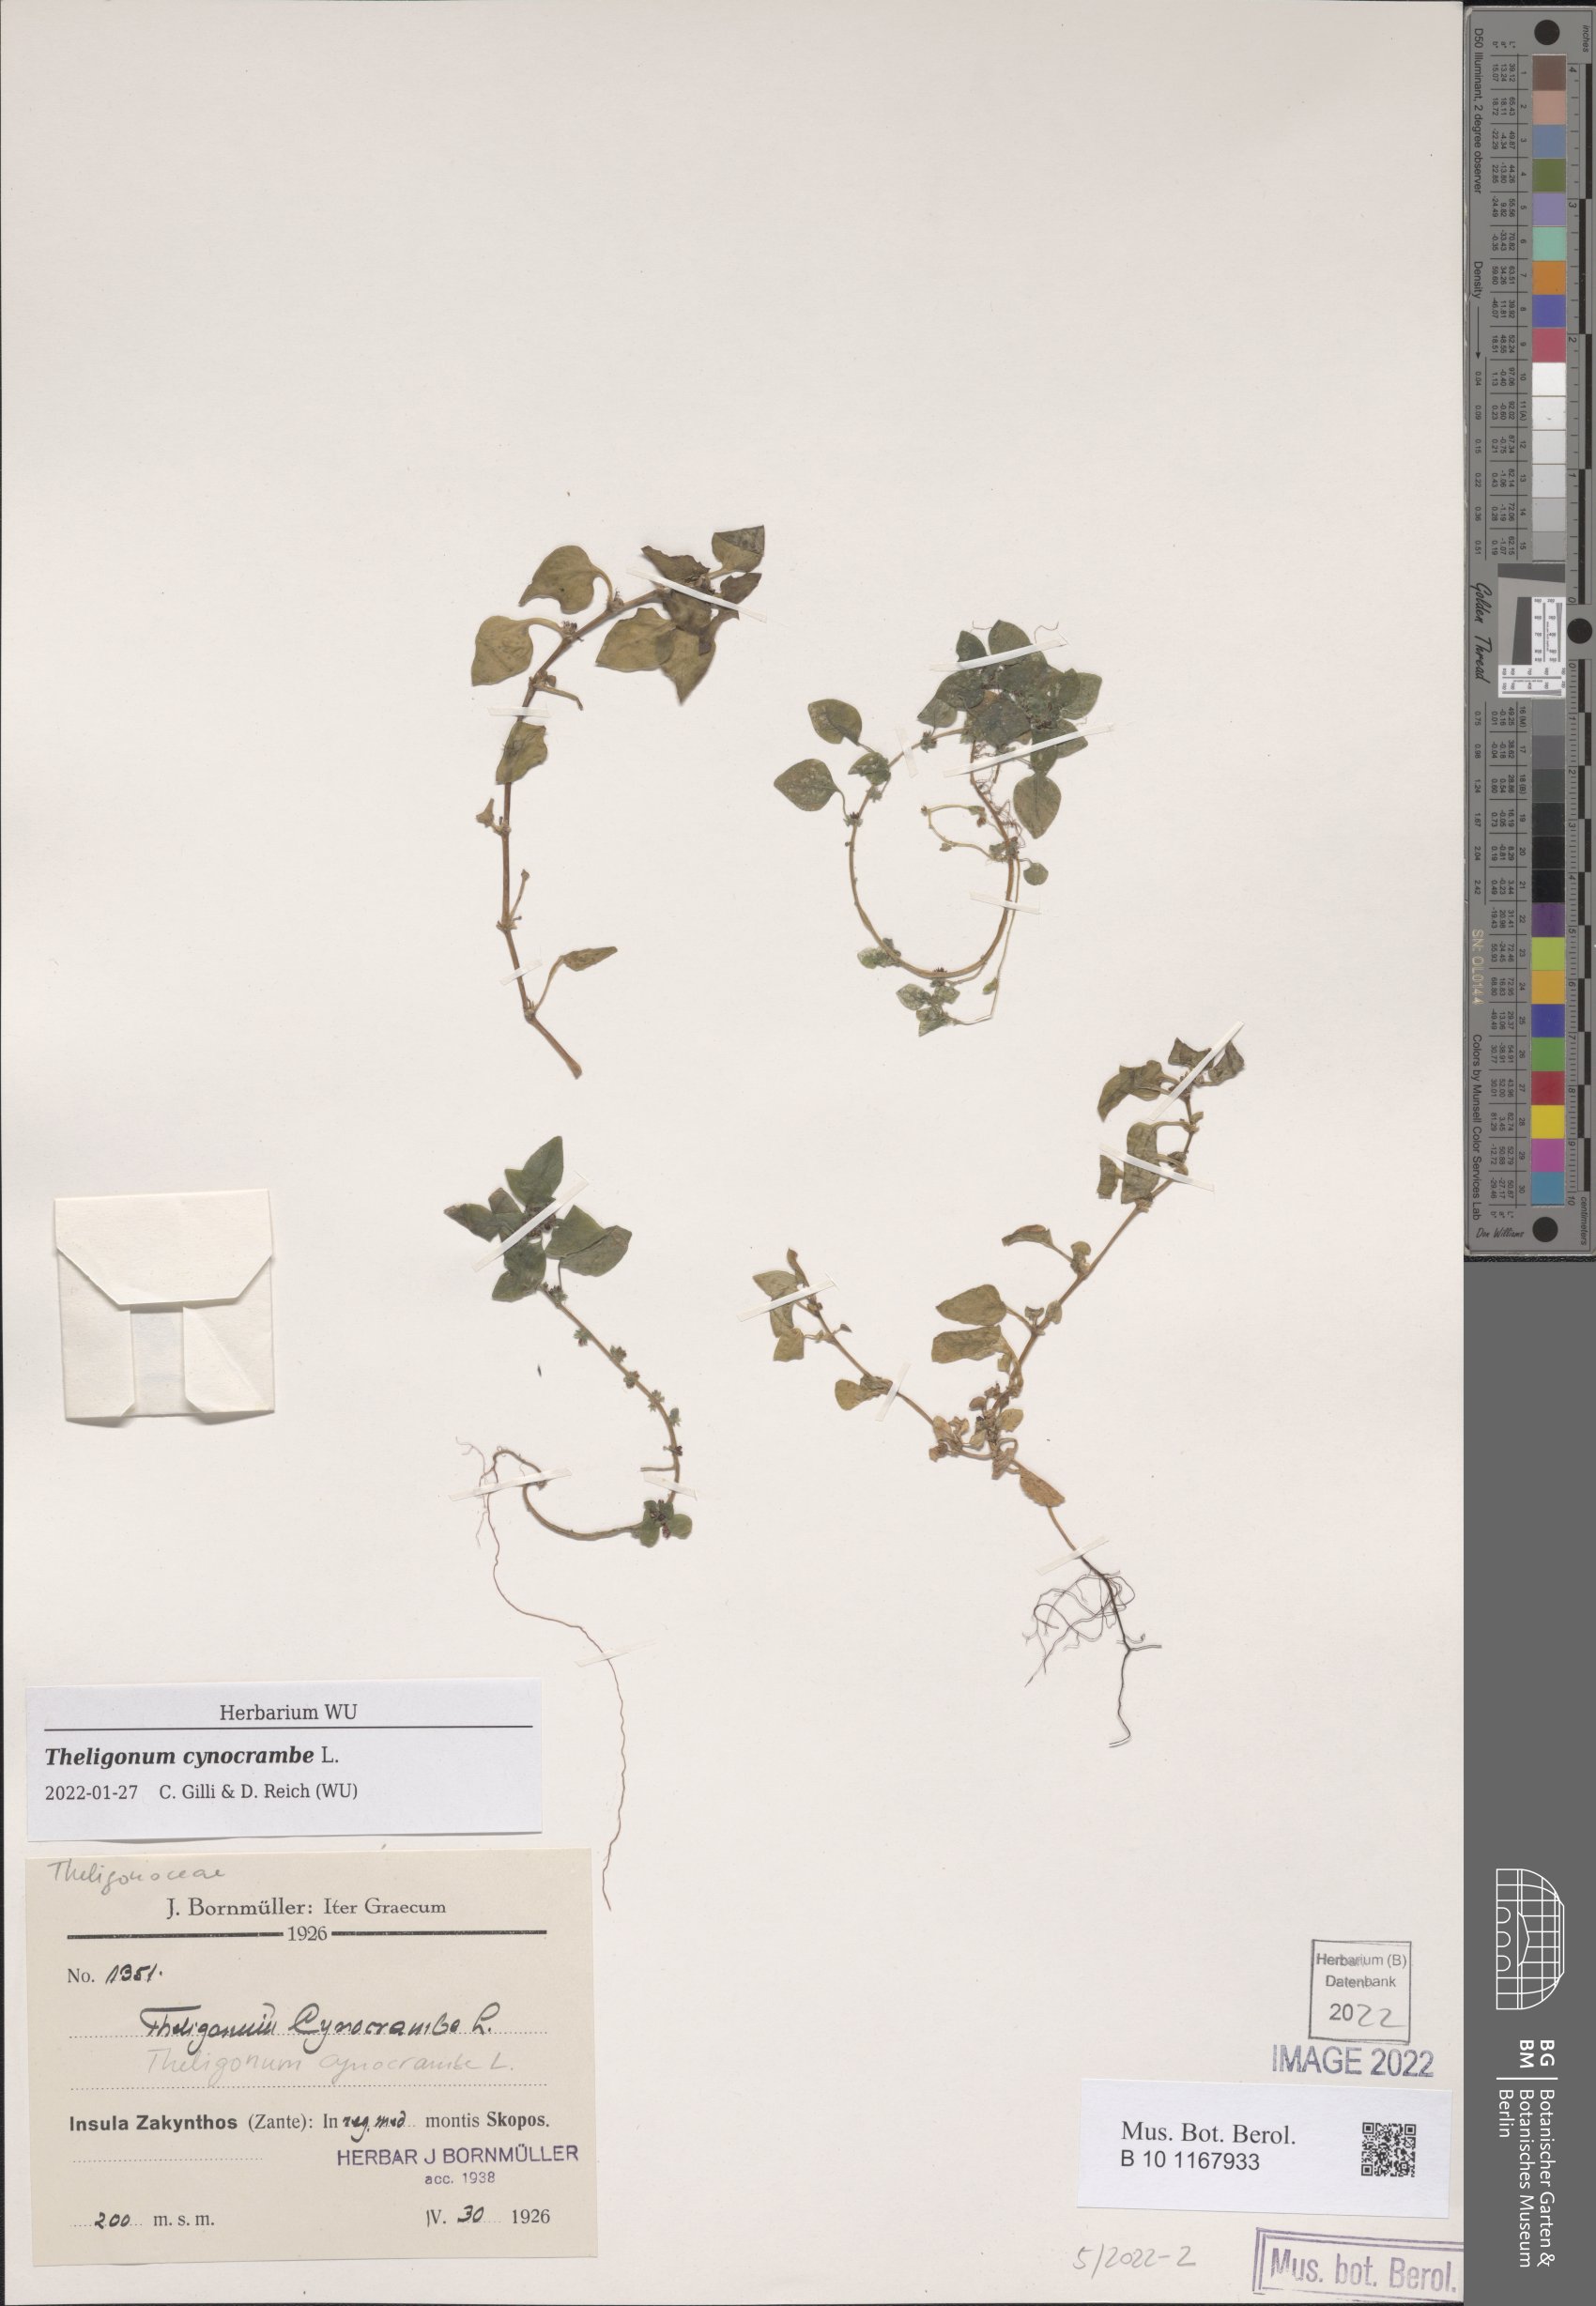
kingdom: Plantae
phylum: Tracheophyta
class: Magnoliopsida
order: Gentianales
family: Rubiaceae
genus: Theligonum
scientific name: Theligonum cynocrambe
